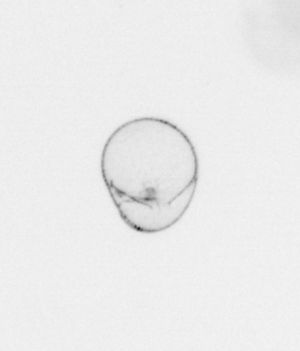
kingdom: Chromista
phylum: Myzozoa
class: Dinophyceae
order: Noctilucales
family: Noctilucaceae
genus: Noctiluca
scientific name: Noctiluca scintillans
